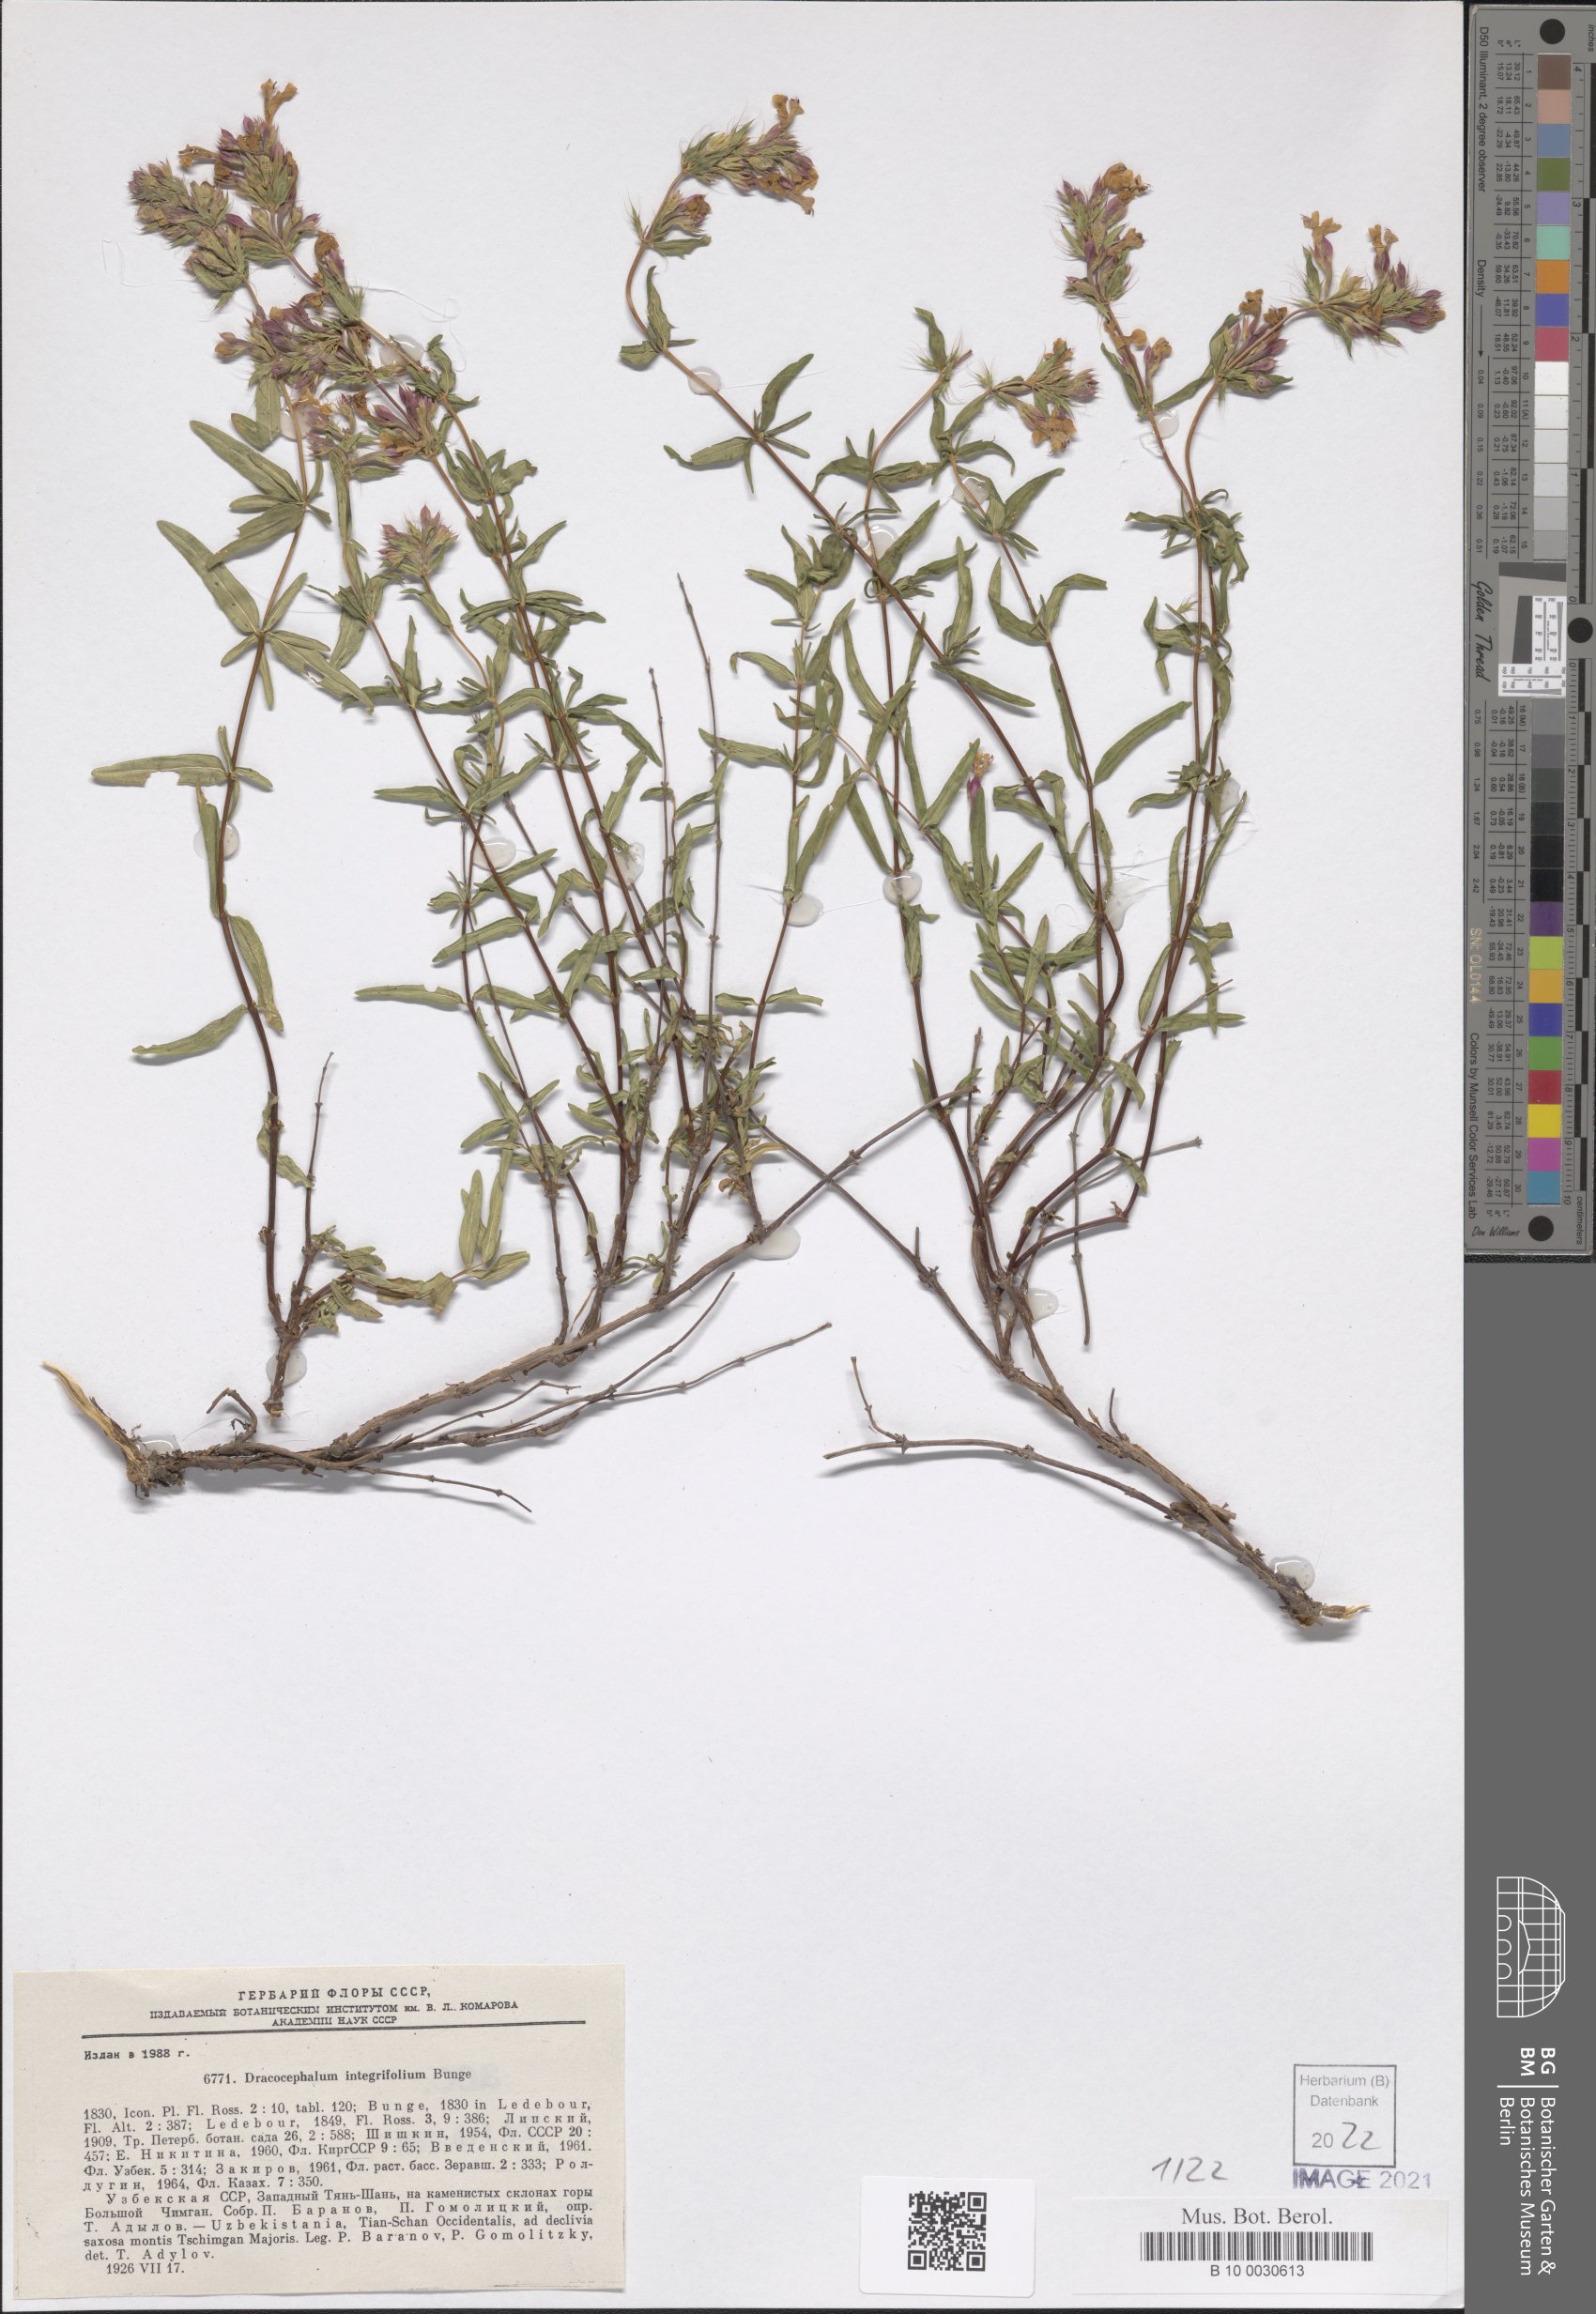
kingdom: Plantae
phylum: Tracheophyta
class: Magnoliopsida
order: Lamiales
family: Lamiaceae
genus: Dracocephalum
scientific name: Dracocephalum integrifolium
